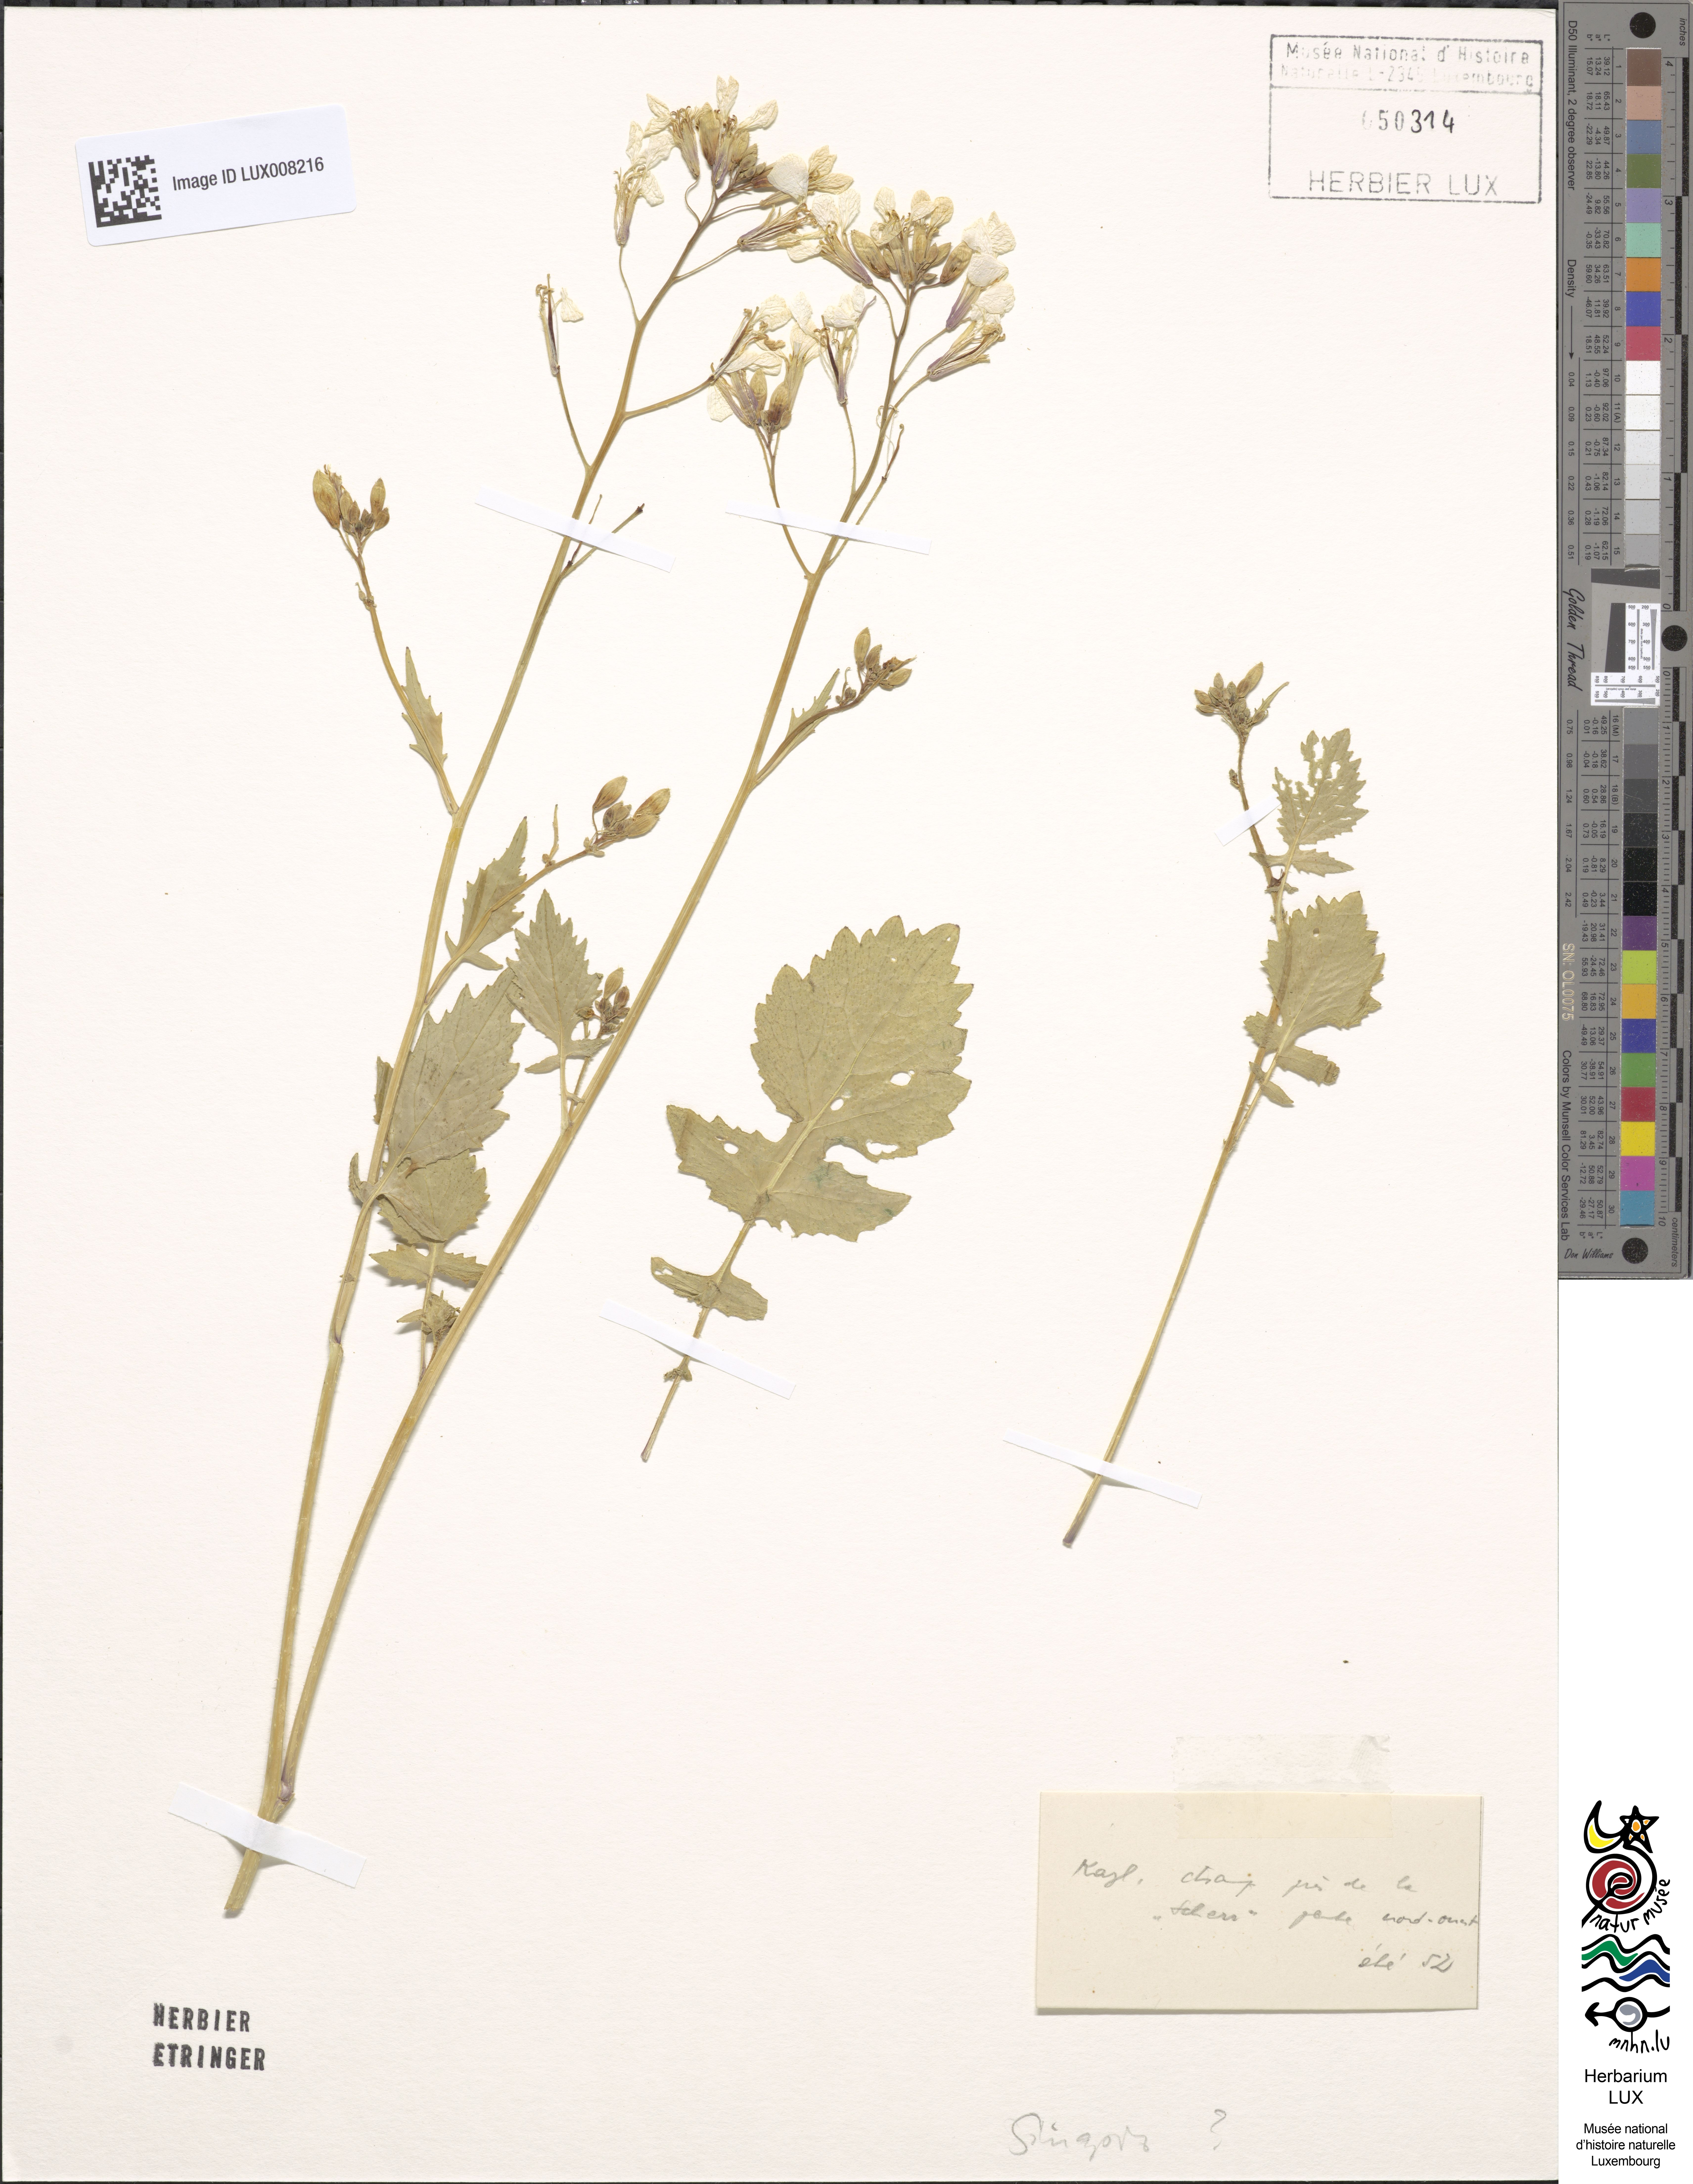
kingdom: Plantae
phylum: Tracheophyta
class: Magnoliopsida
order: Brassicales
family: Brassicaceae
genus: Sinapis
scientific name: Sinapis
